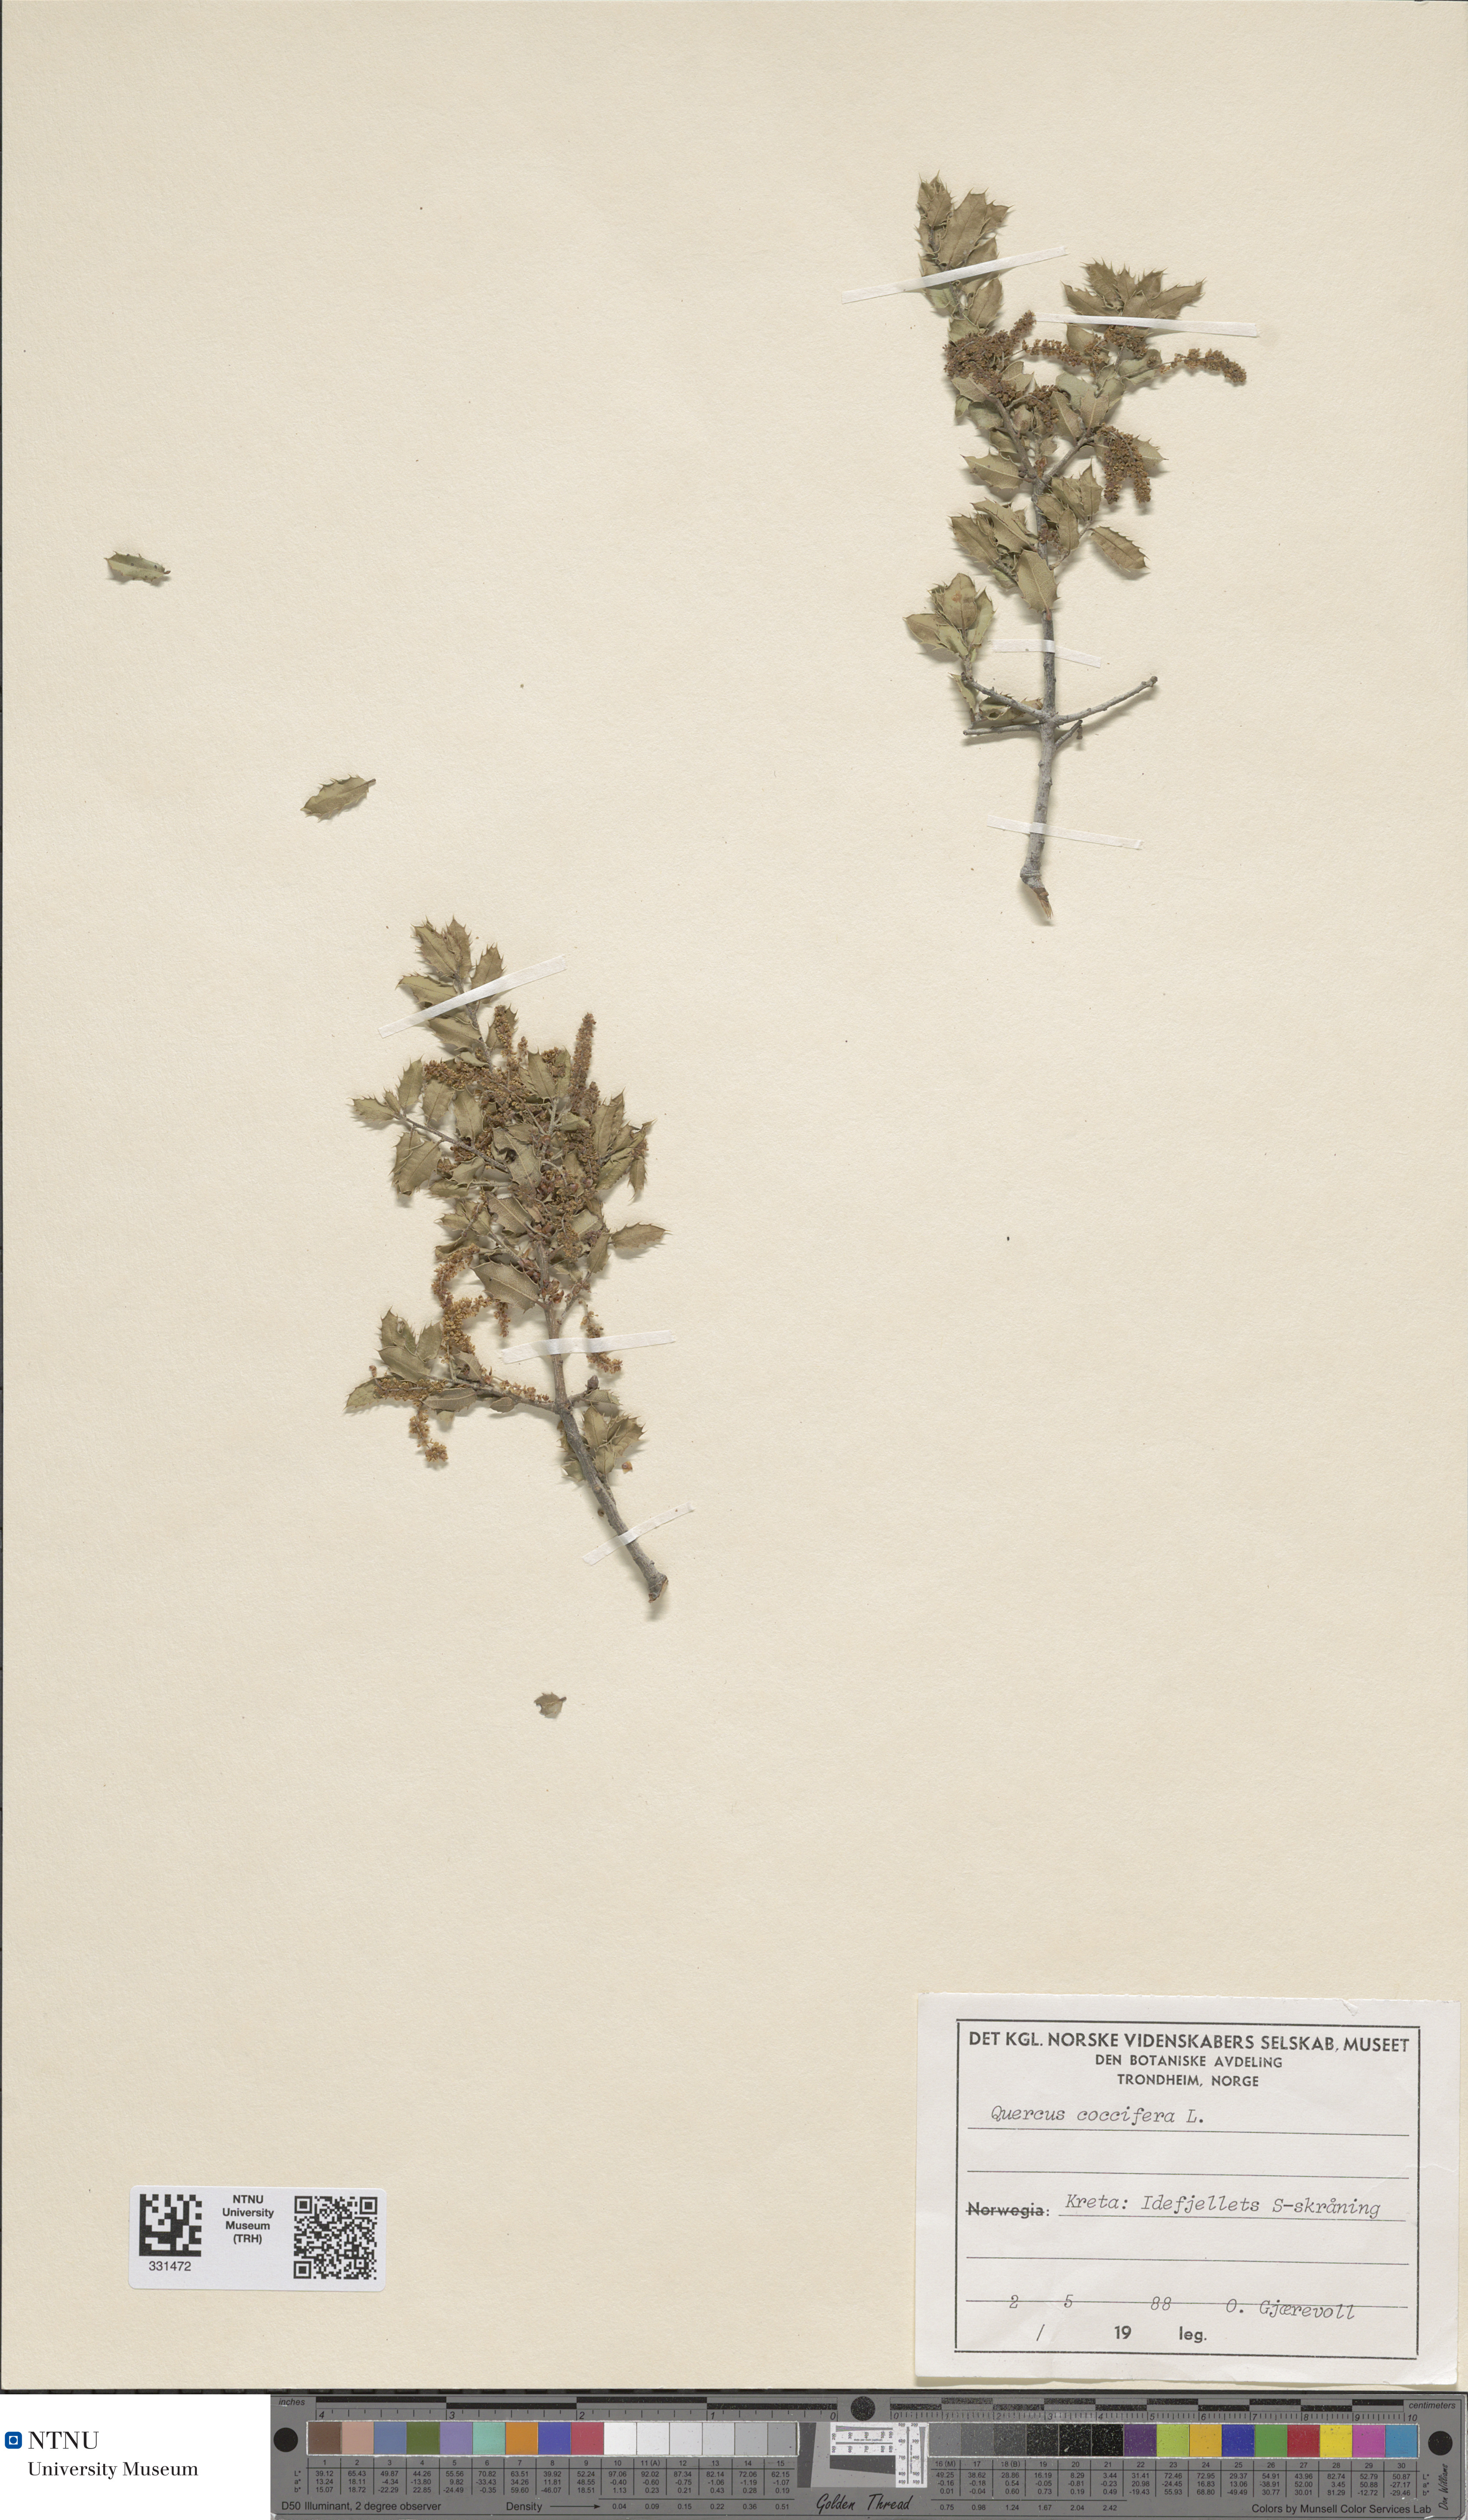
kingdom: Plantae
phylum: Tracheophyta
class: Magnoliopsida
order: Fagales
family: Fagaceae
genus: Quercus
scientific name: Quercus coccifera
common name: Kermes oak
